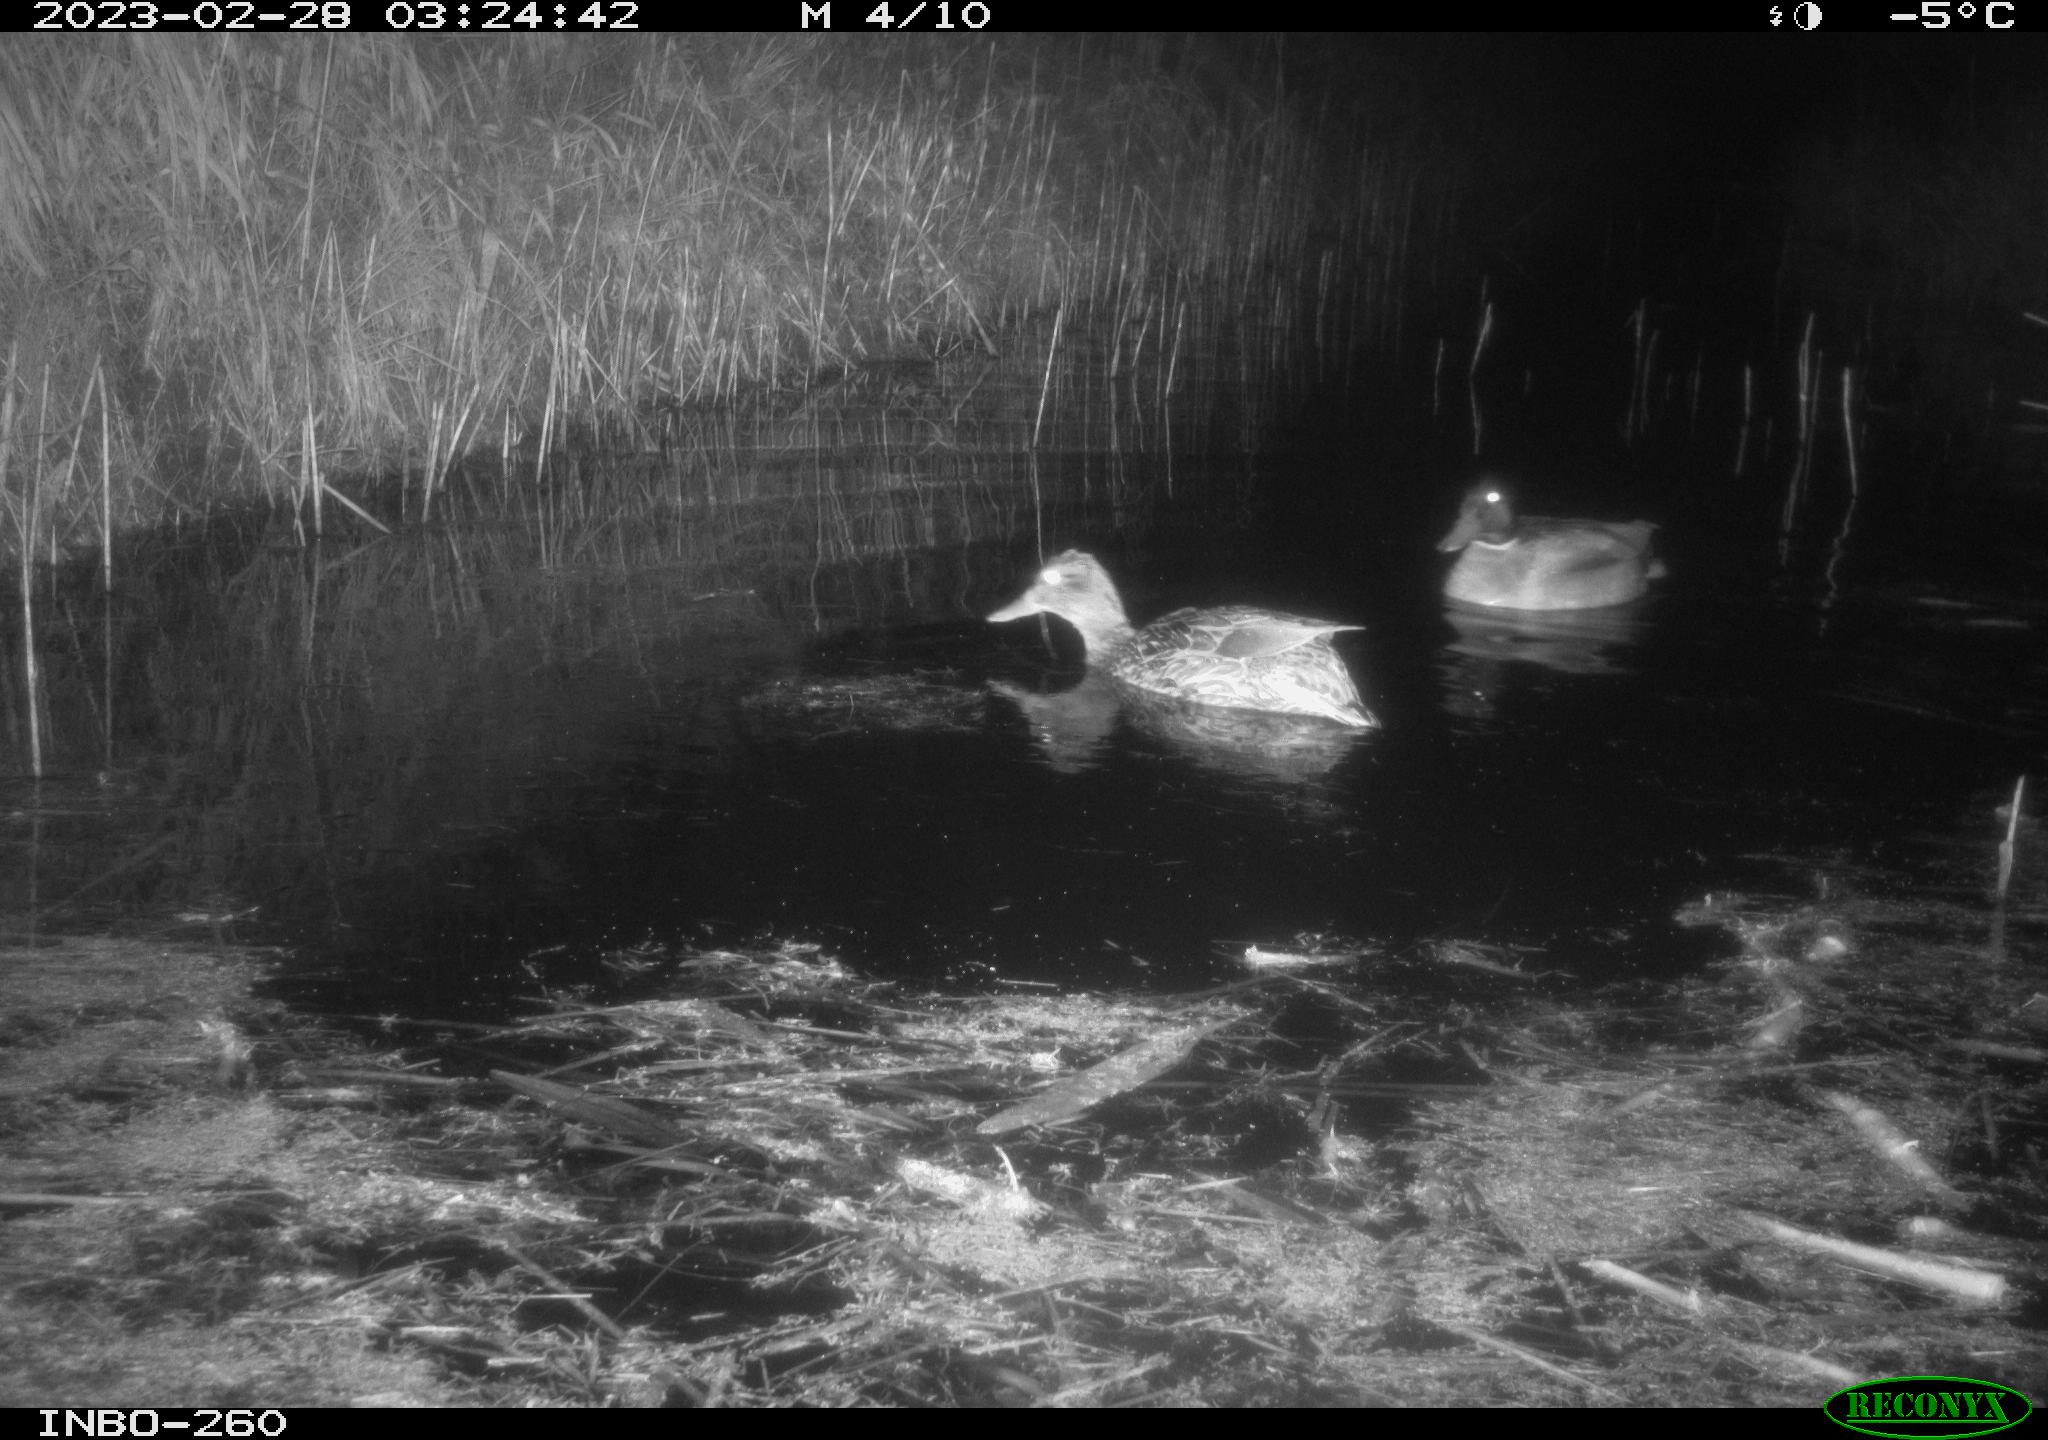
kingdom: Animalia
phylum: Chordata
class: Aves
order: Anseriformes
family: Anatidae
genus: Anas
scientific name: Anas
